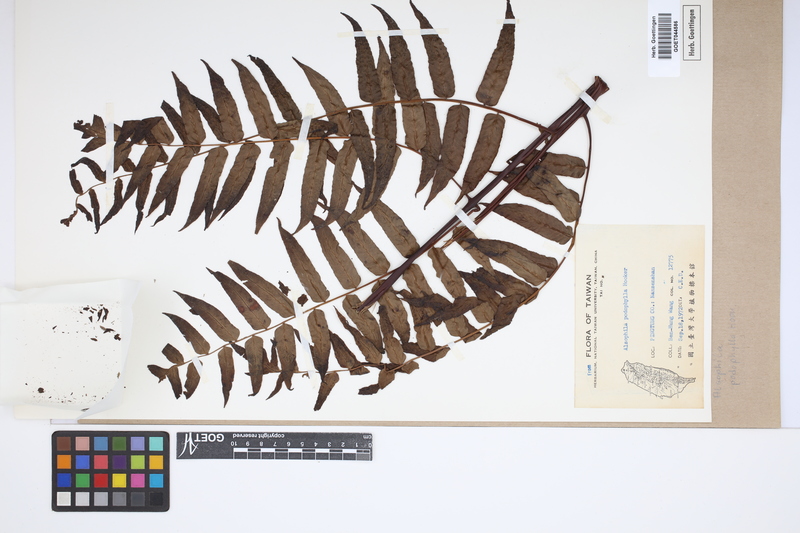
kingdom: Plantae
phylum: Tracheophyta
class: Polypodiopsida
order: Cyatheales
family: Cyatheaceae
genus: Gymnosphaera
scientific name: Gymnosphaera podophylla
